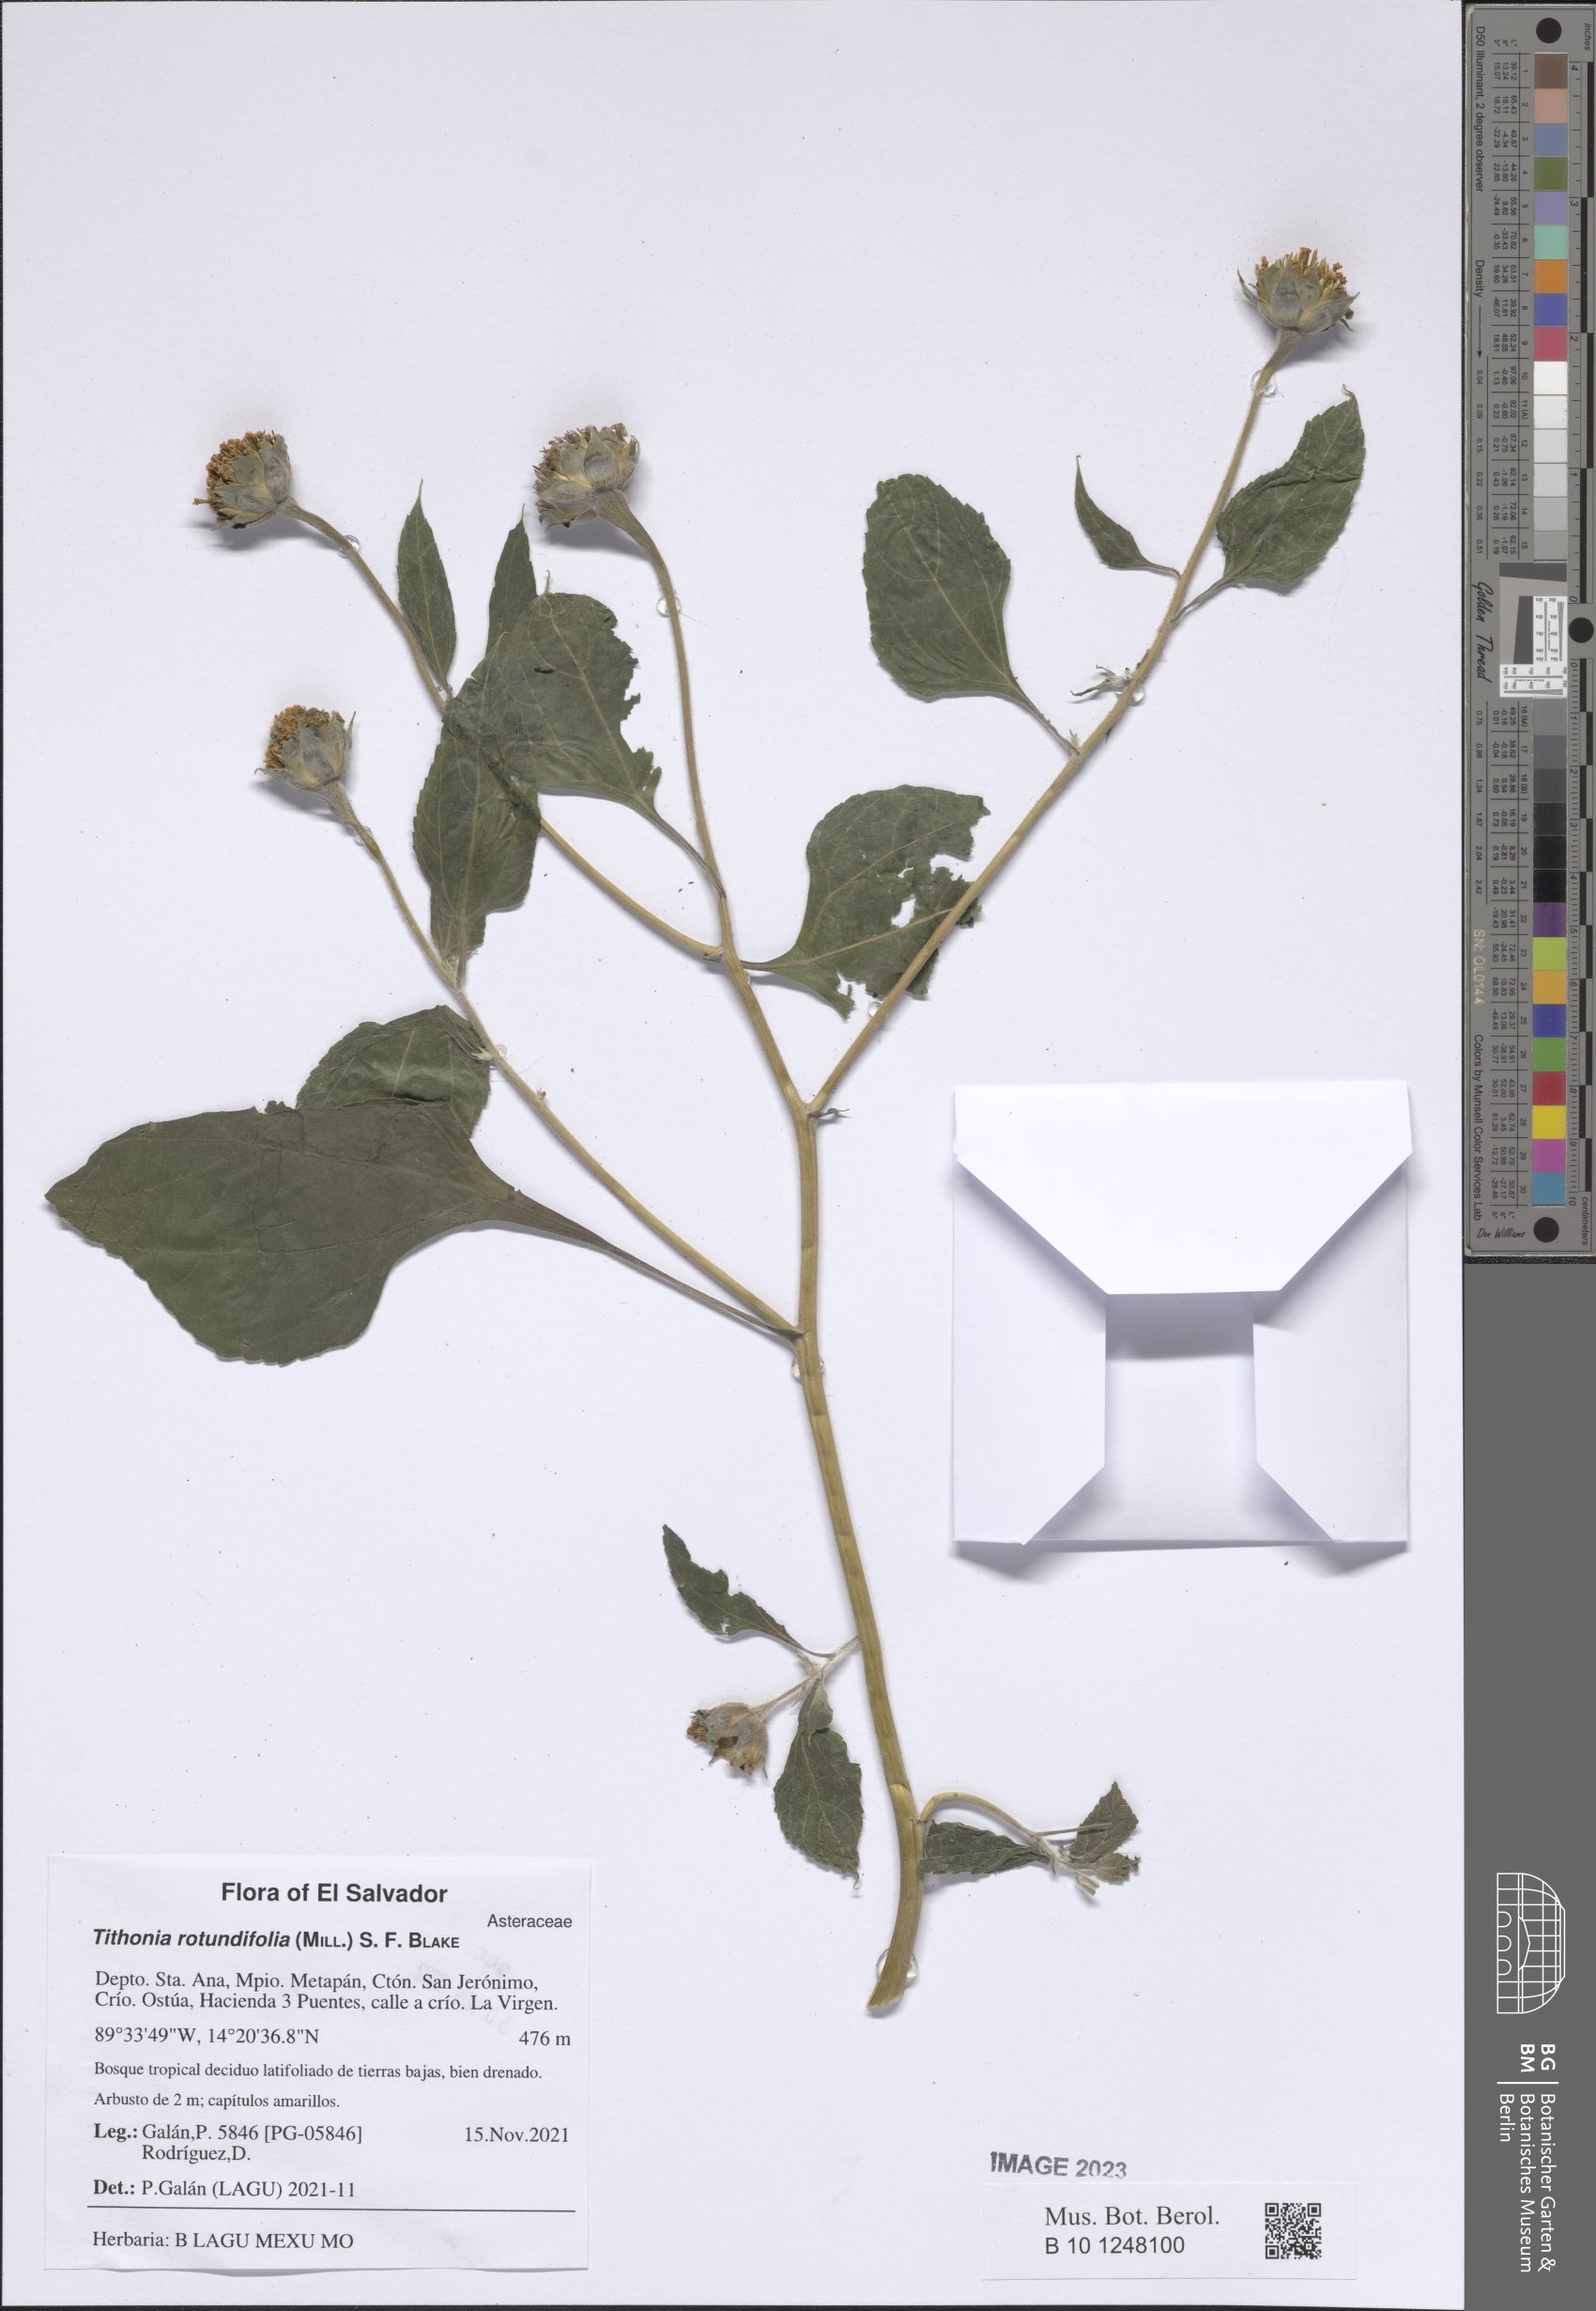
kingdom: Plantae
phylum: Tracheophyta
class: Magnoliopsida
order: Asterales
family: Asteraceae
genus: Tithonia
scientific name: Tithonia rotundifolia
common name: Sunflower
